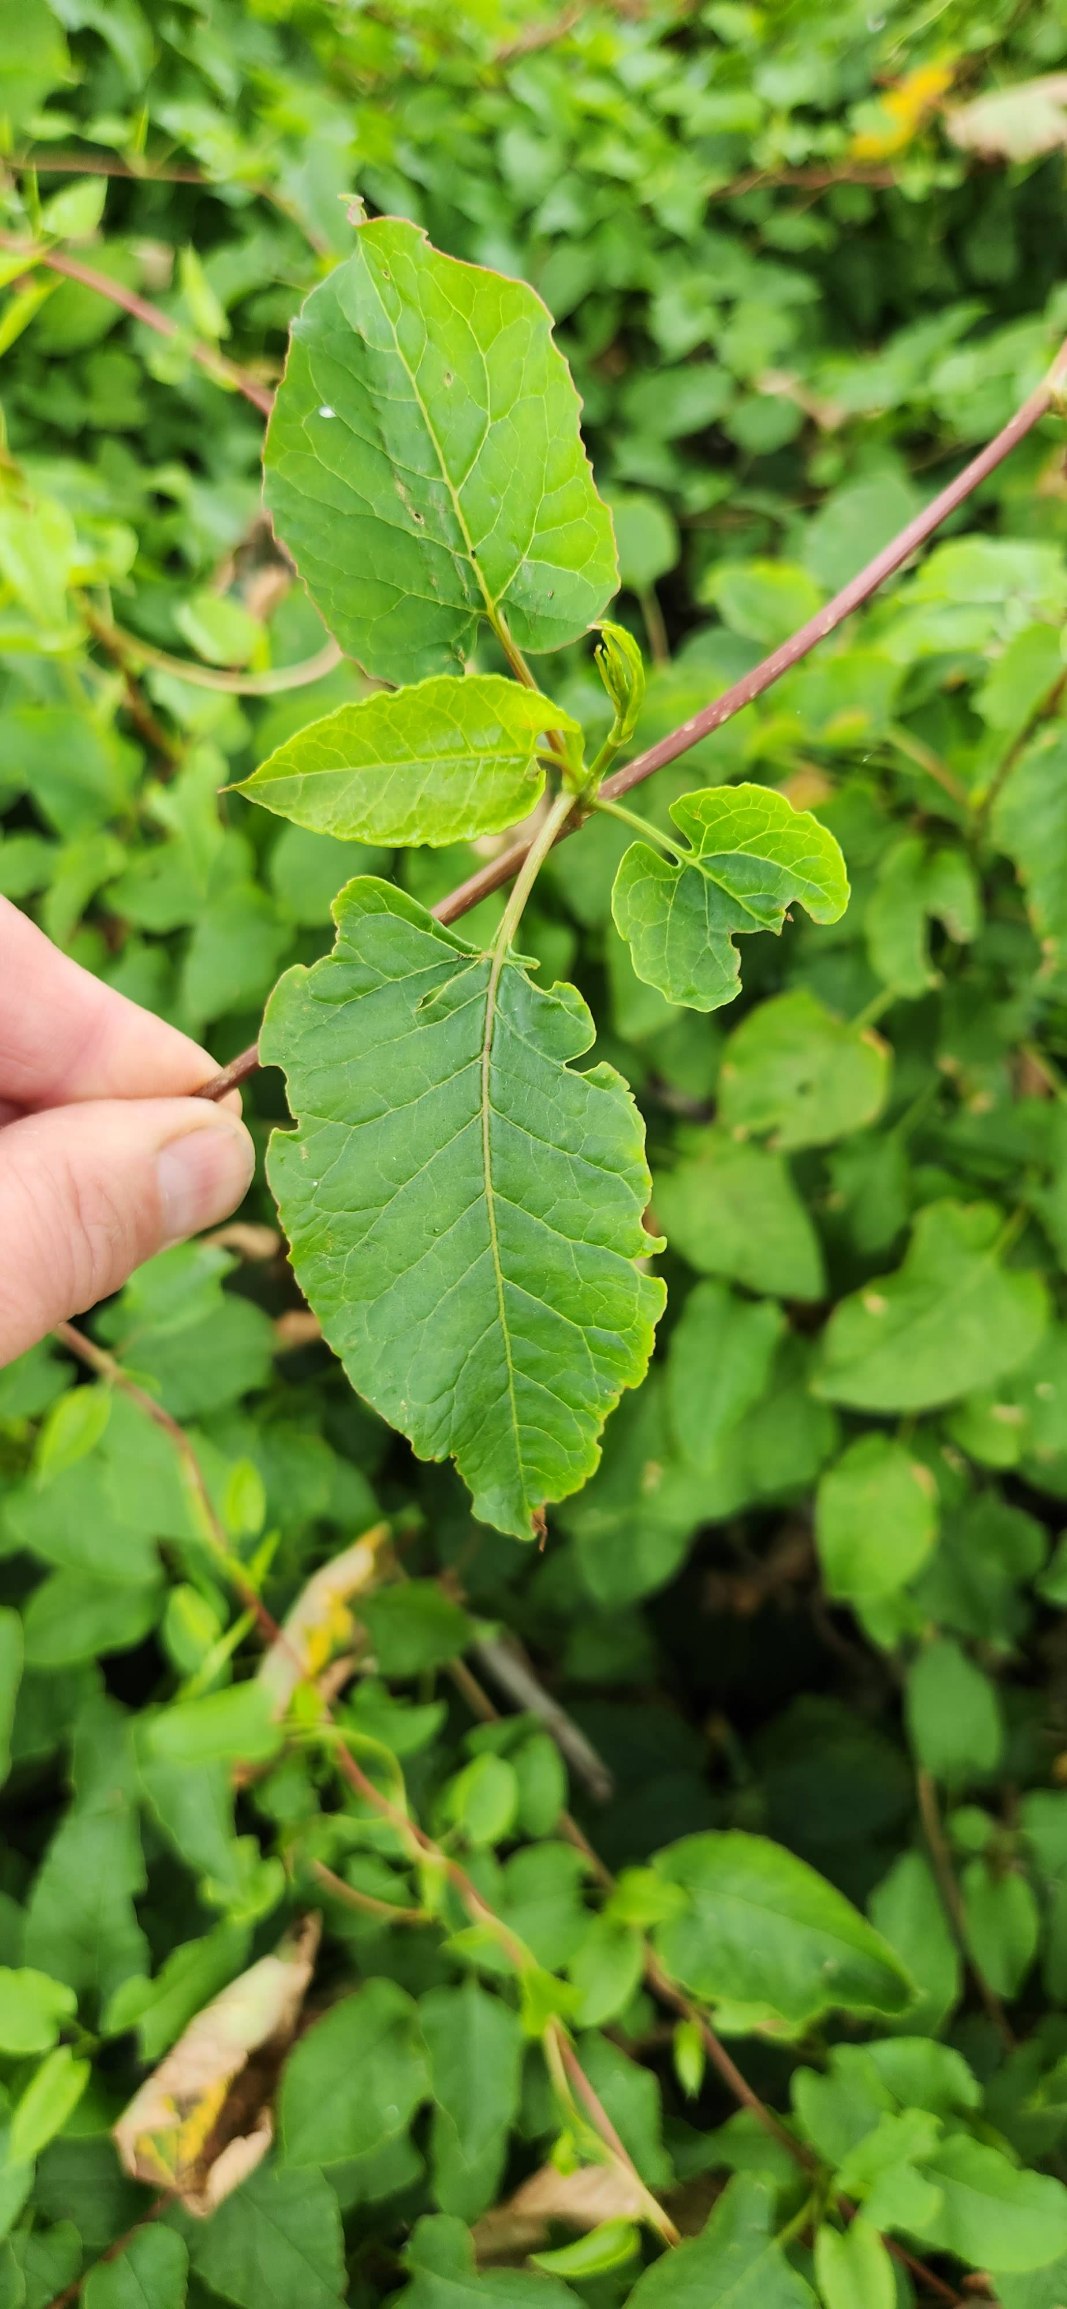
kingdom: Plantae
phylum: Tracheophyta
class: Magnoliopsida
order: Caryophyllales
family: Polygonaceae
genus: Fallopia
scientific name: Fallopia baldschuanica
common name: Sølvregn
